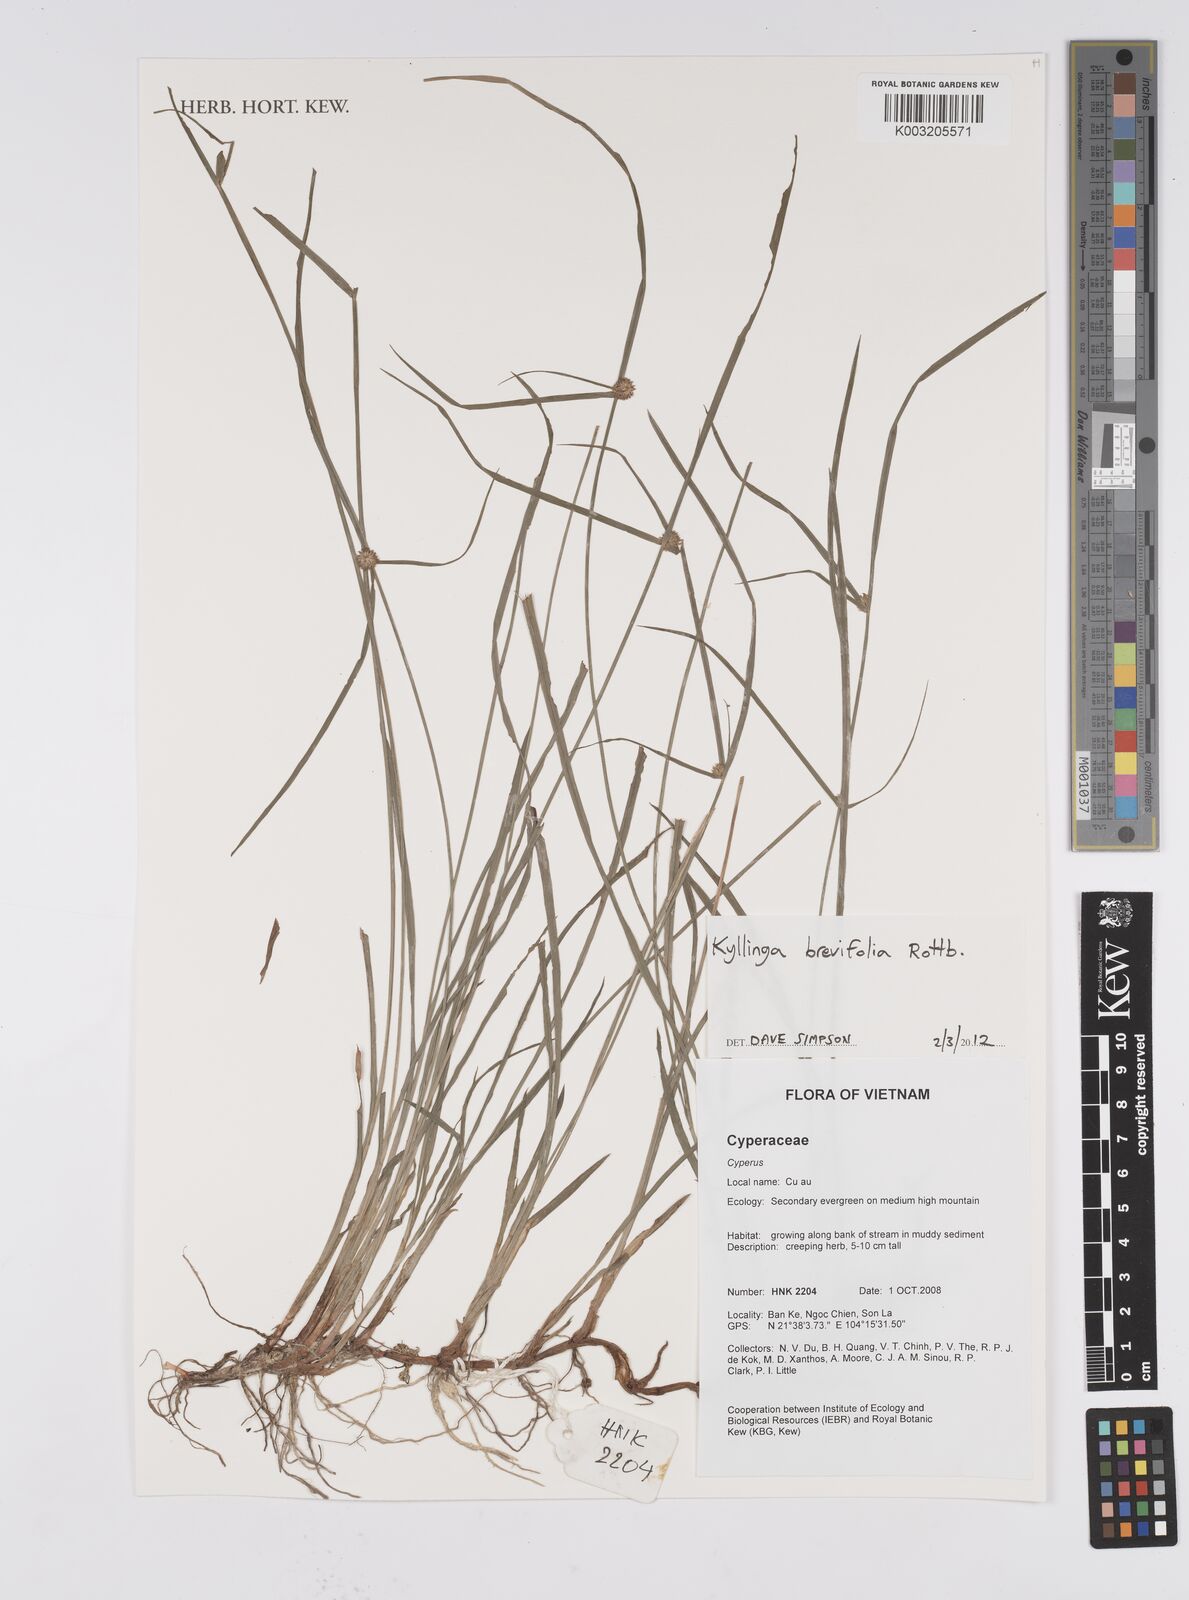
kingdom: Plantae
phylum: Tracheophyta
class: Liliopsida
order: Poales
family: Cyperaceae
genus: Cyperus
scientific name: Cyperus brevifolius
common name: Globe kyllinga
